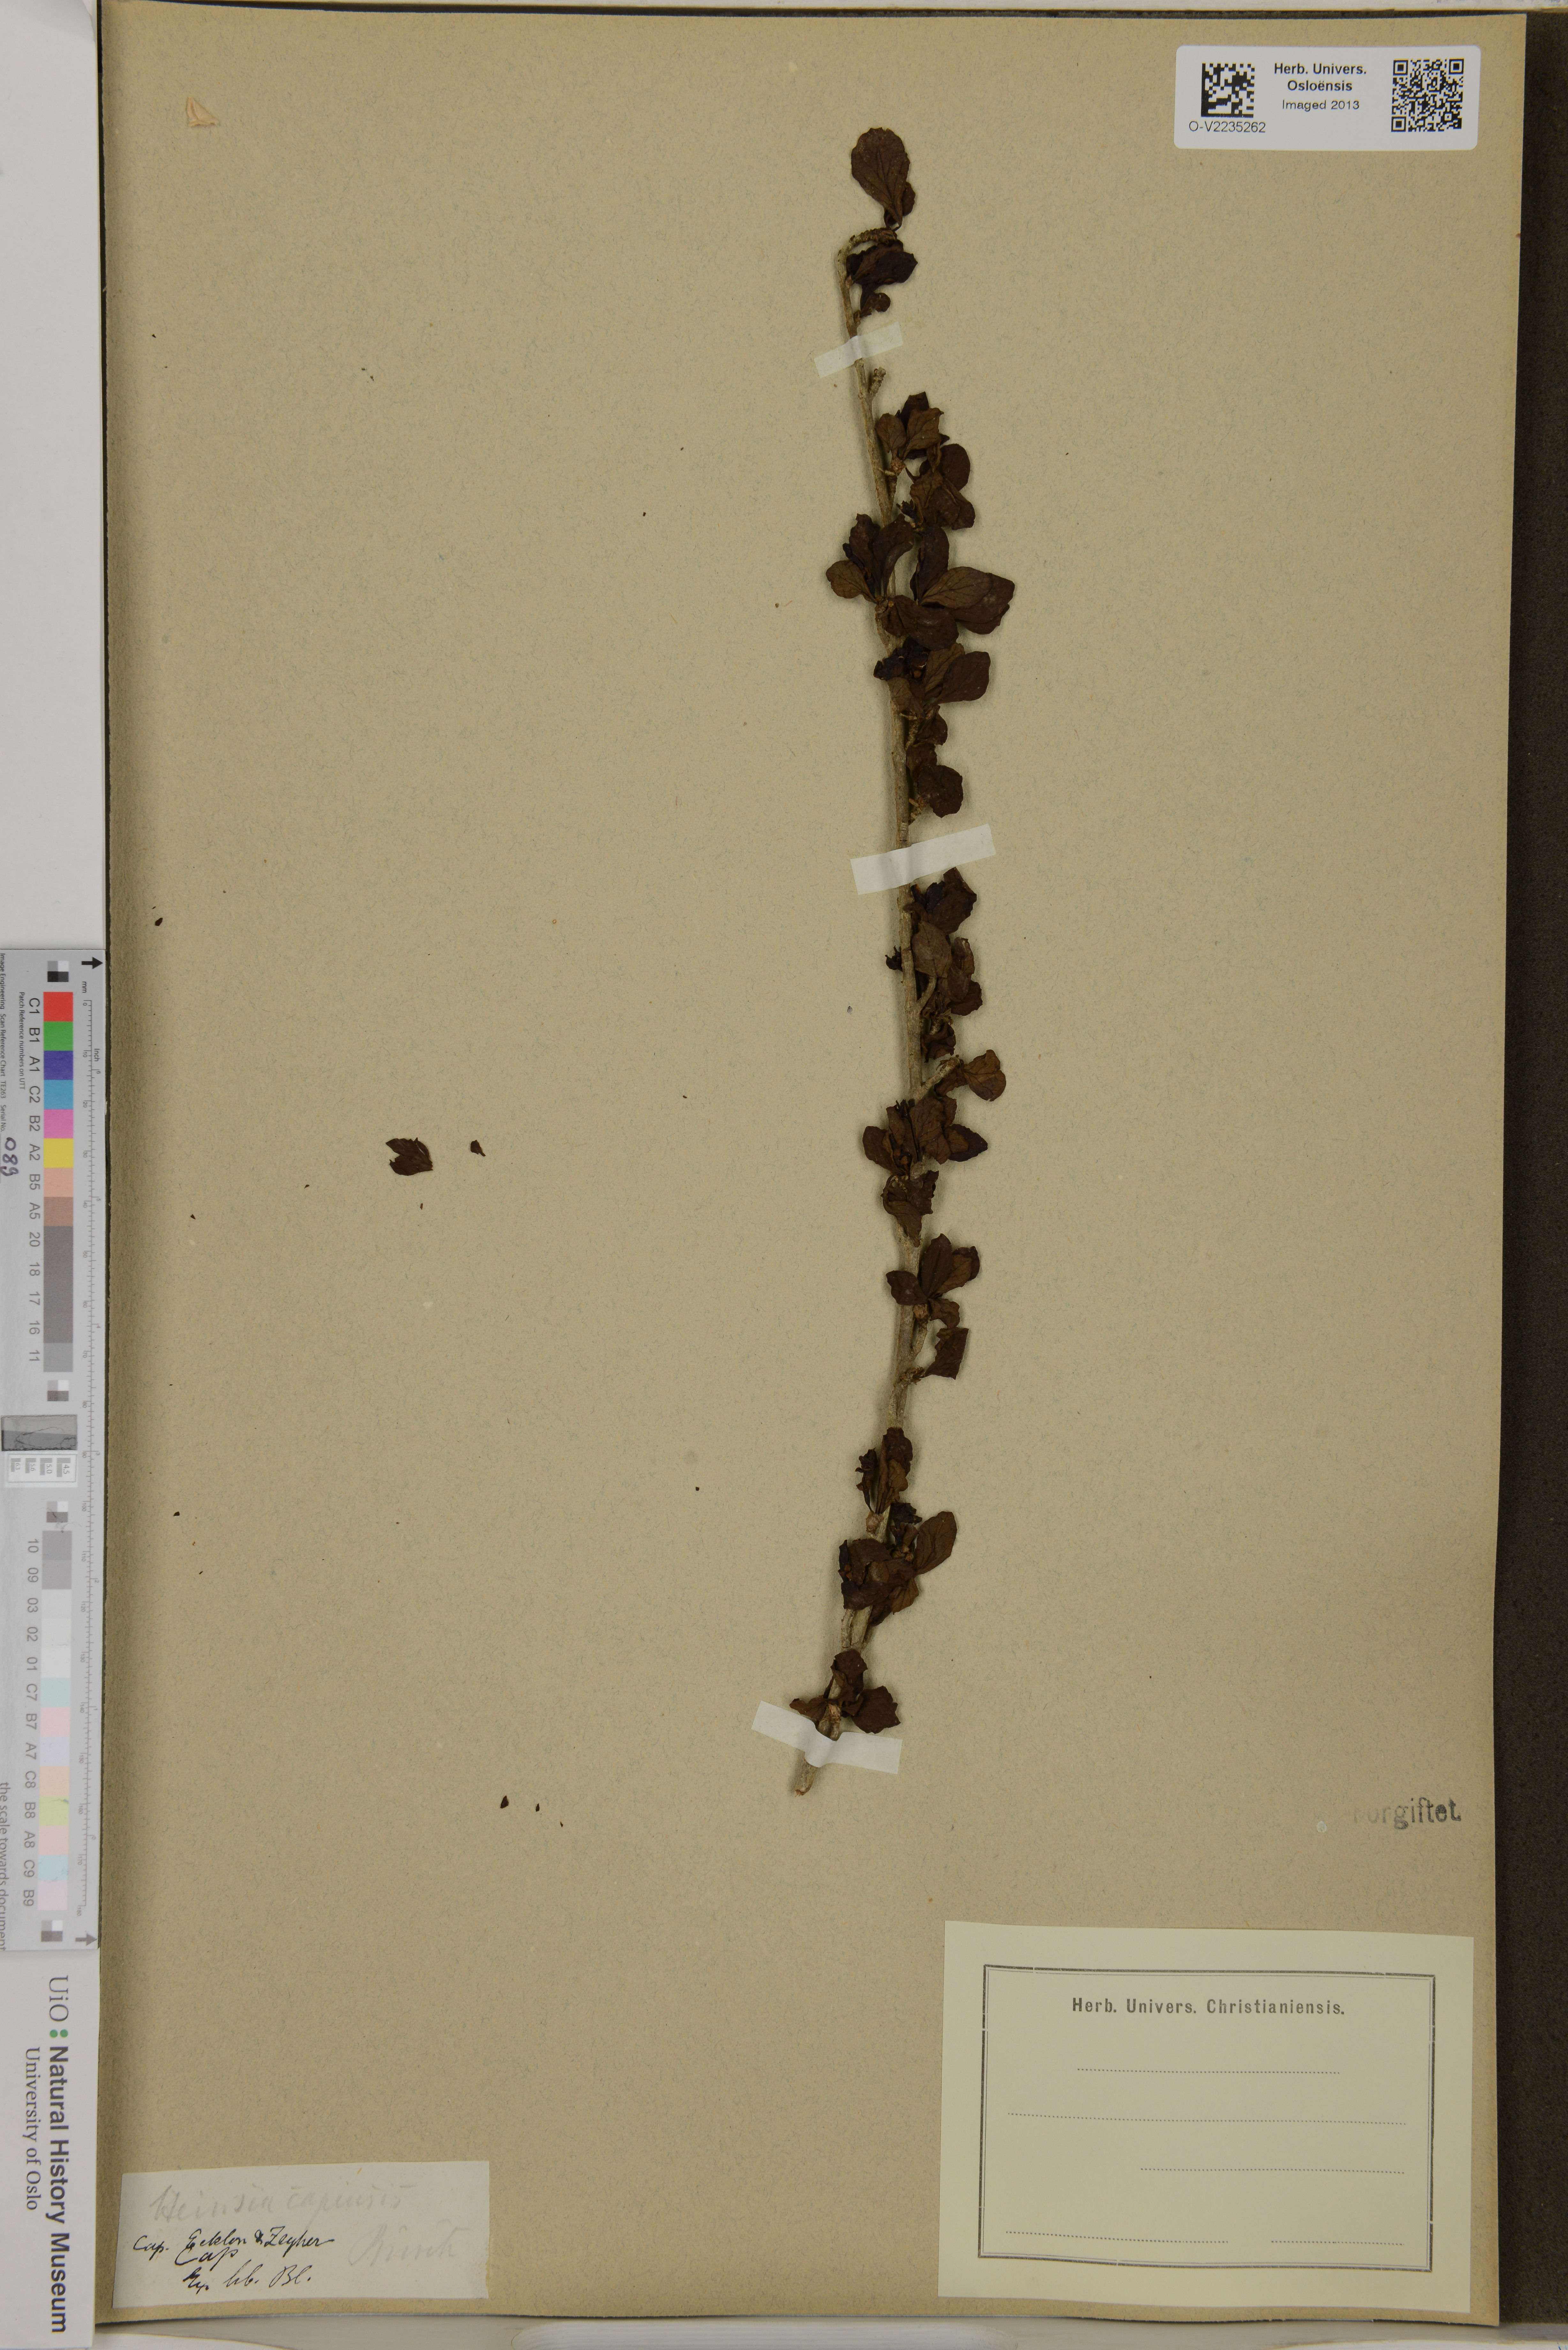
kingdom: Plantae
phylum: Tracheophyta
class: Magnoliopsida
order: Gentianales
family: Rubiaceae
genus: Coddia
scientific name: Coddia rudis
